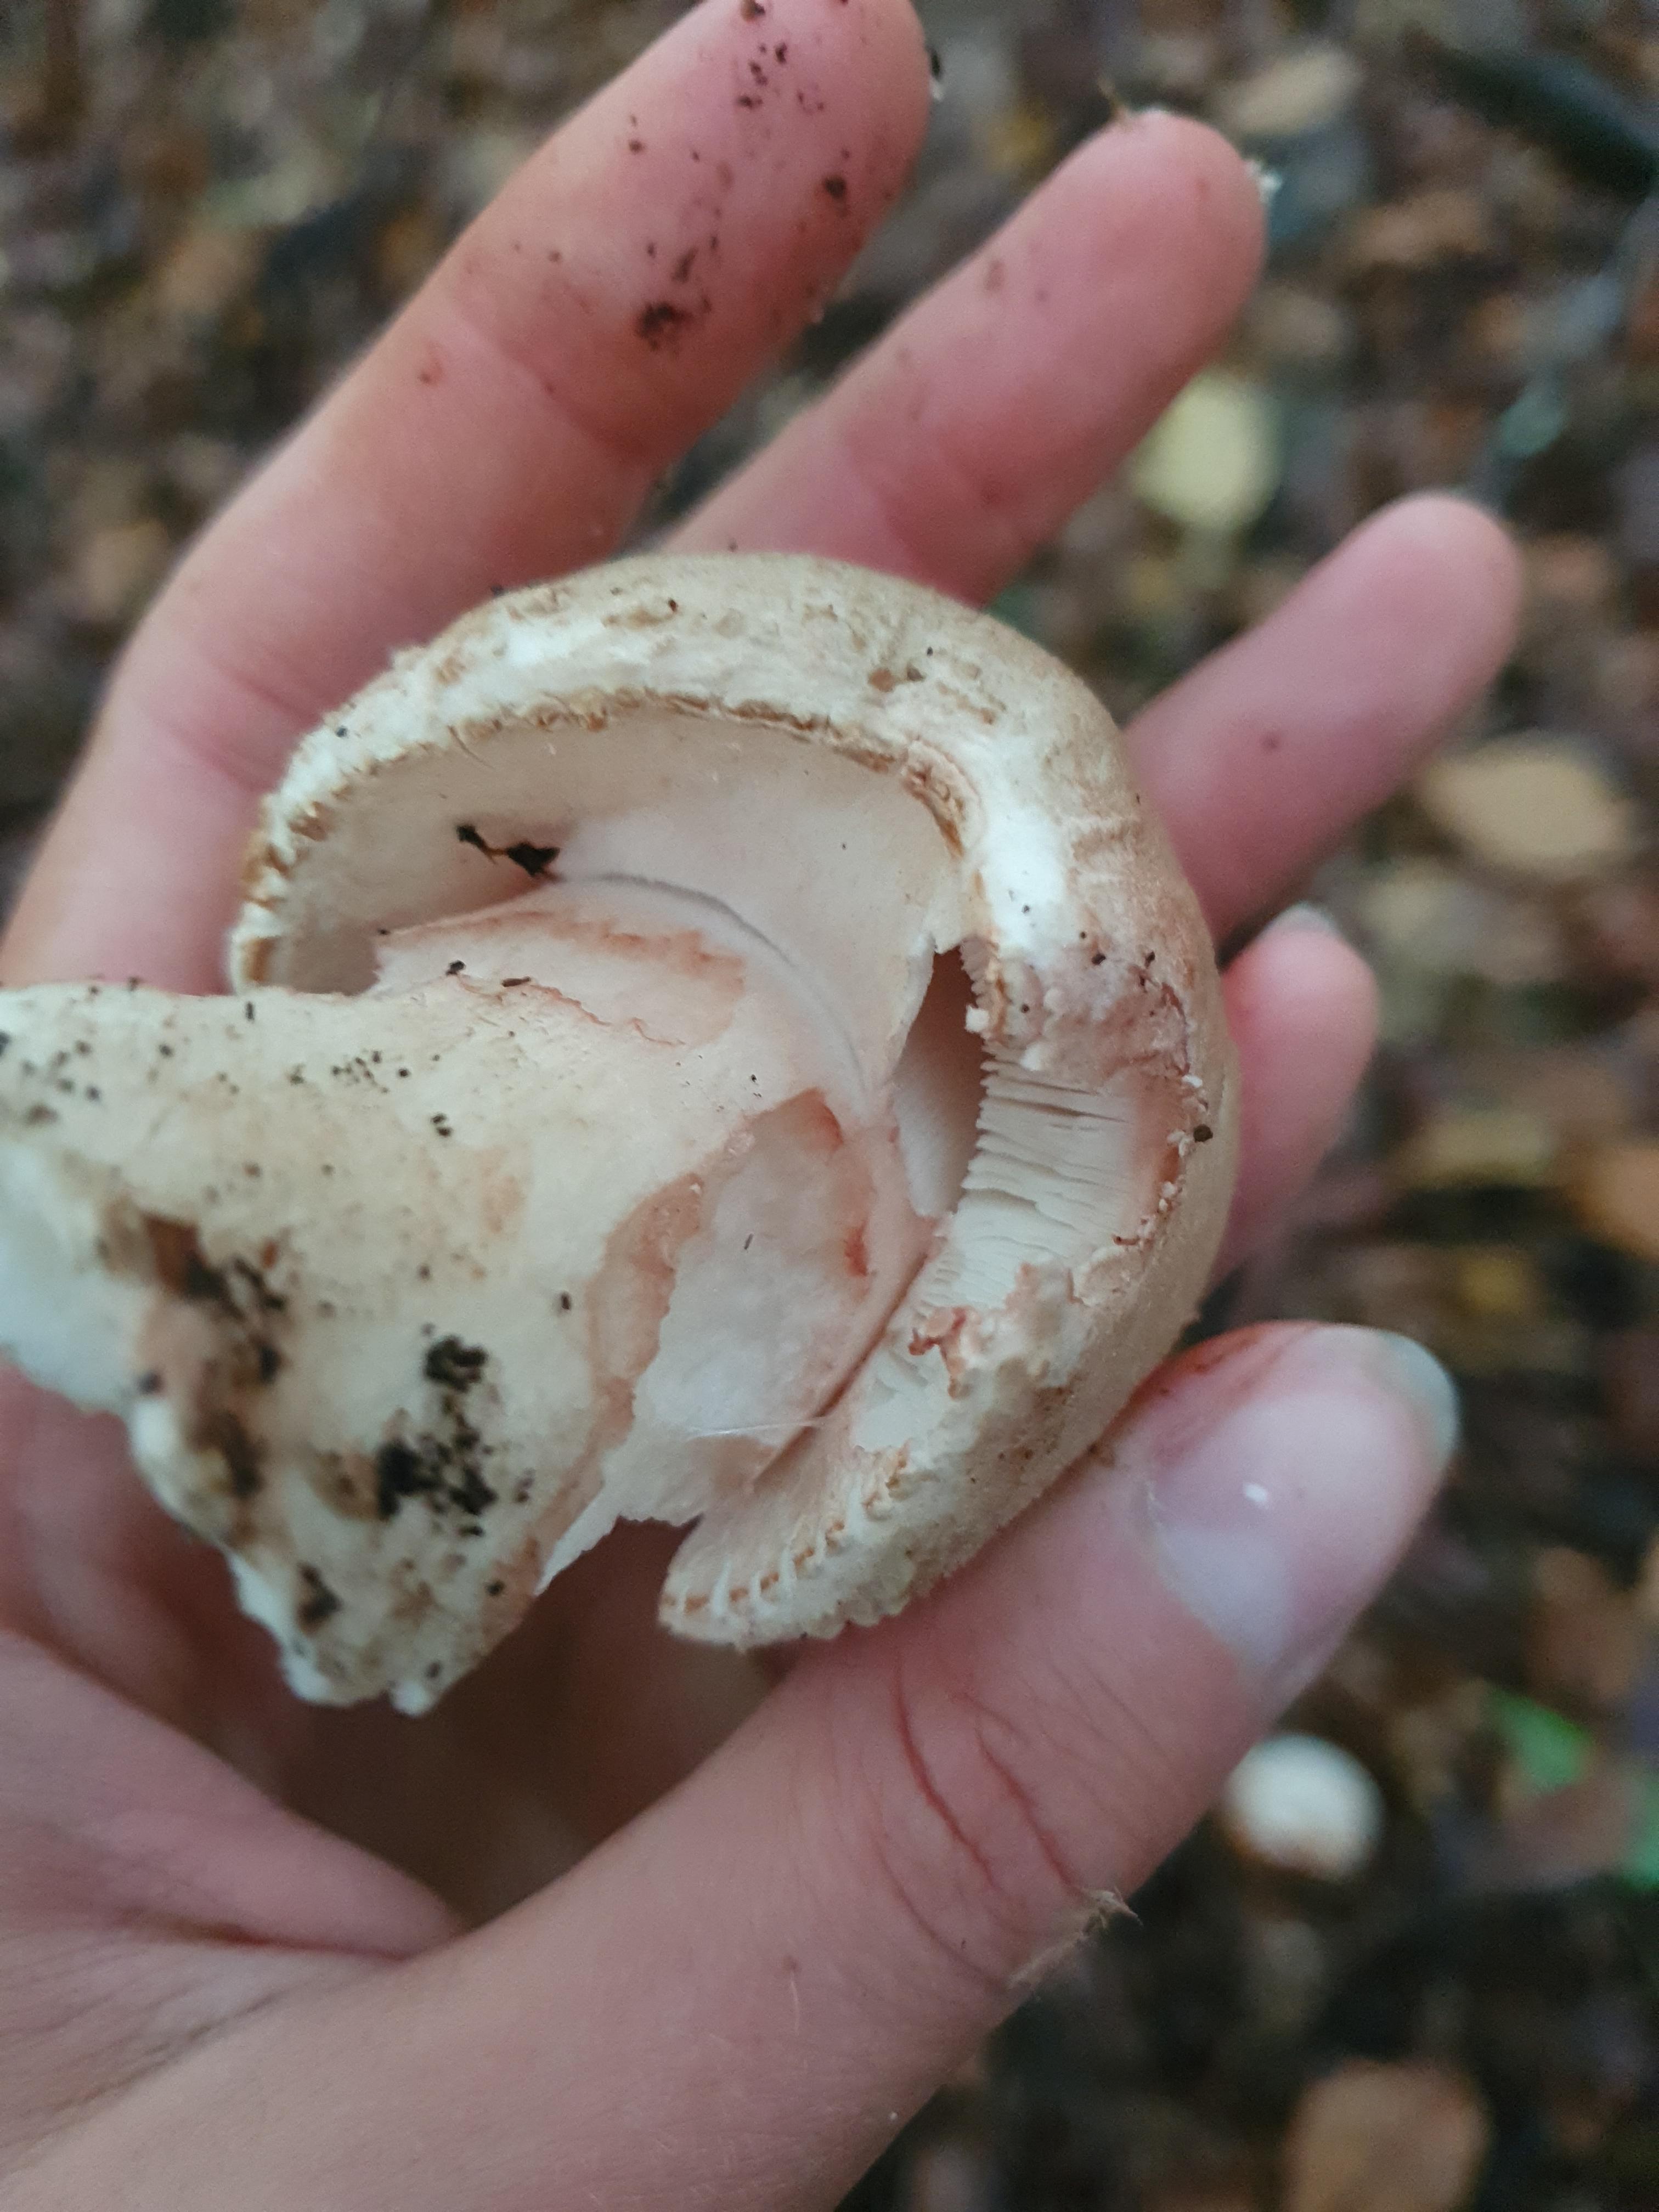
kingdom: Fungi
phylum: Basidiomycota
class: Agaricomycetes
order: Agaricales
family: Amanitaceae
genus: Amanita
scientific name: Amanita rubescens
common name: rødmende fluesvamp
